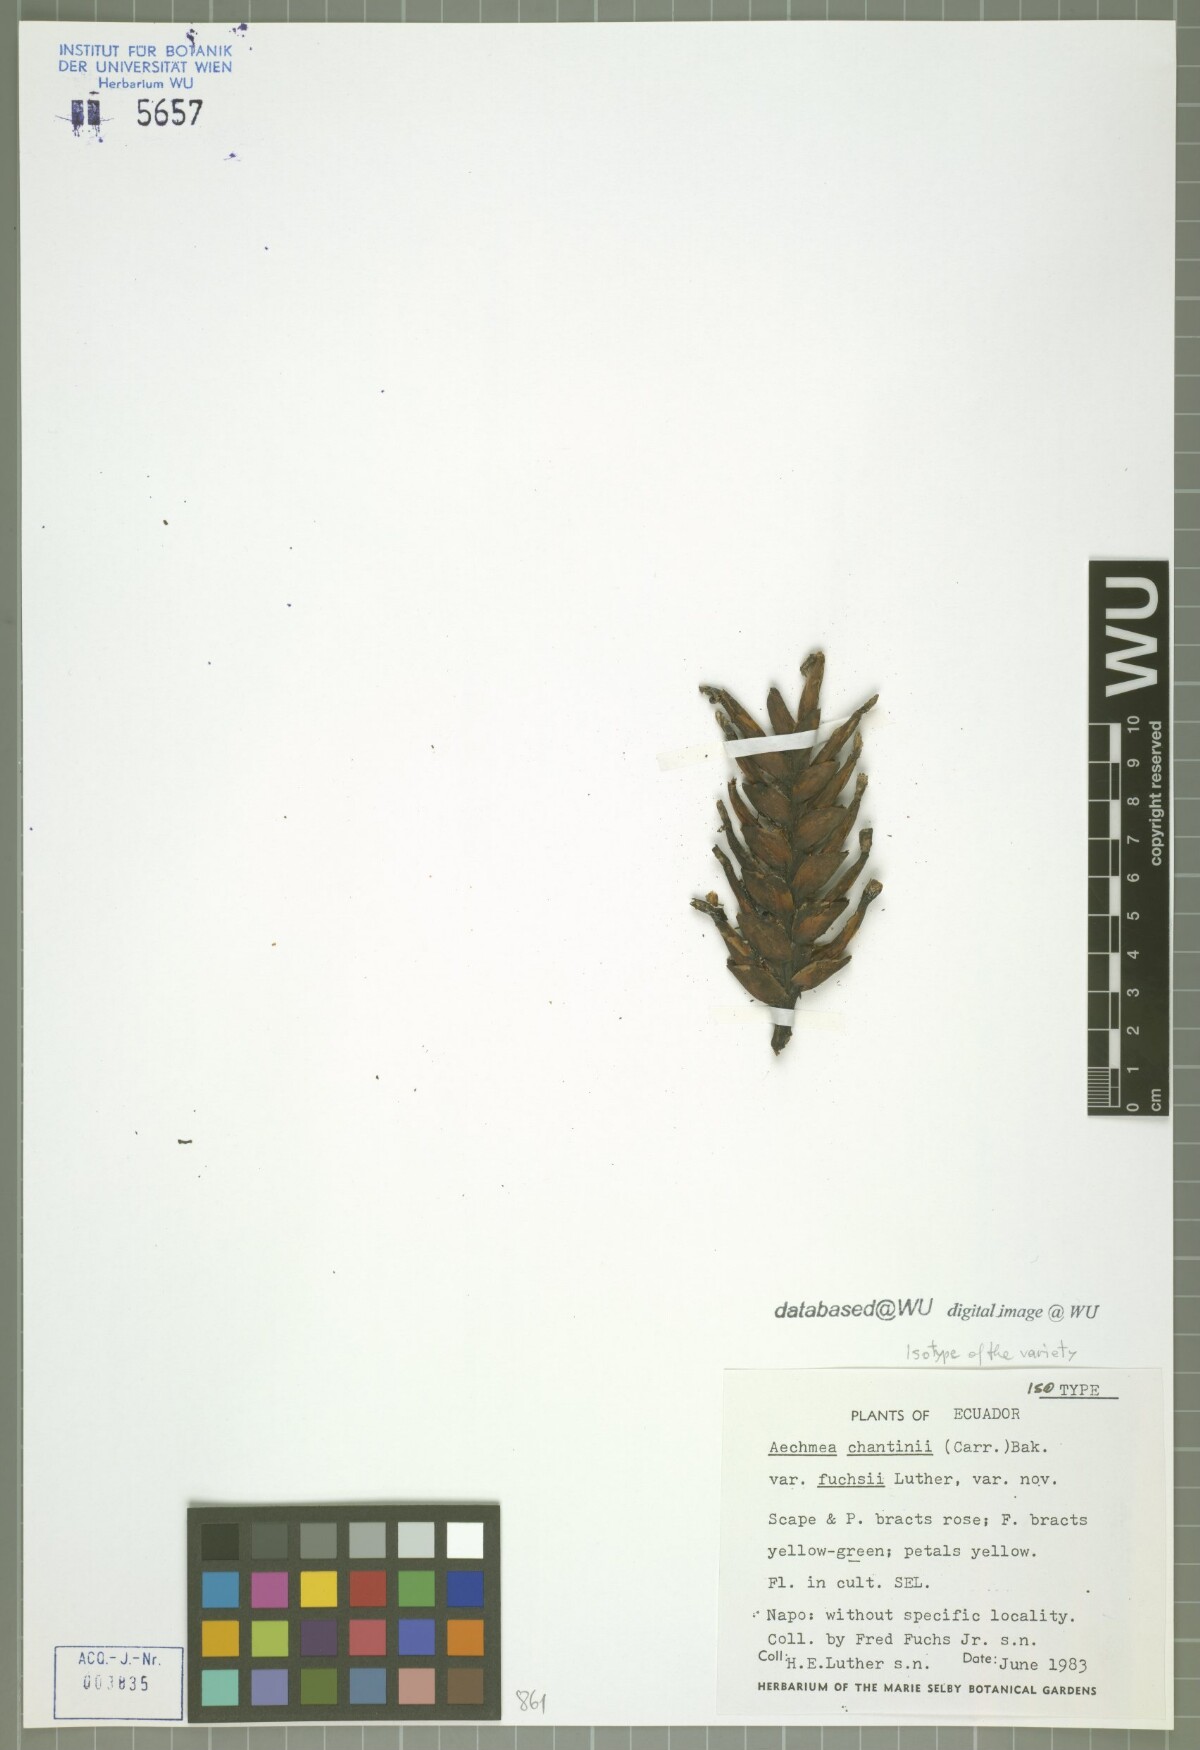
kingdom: Plantae
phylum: Tracheophyta
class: Liliopsida
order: Poales
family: Bromeliaceae
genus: Aechmea
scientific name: Aechmea chantinii
